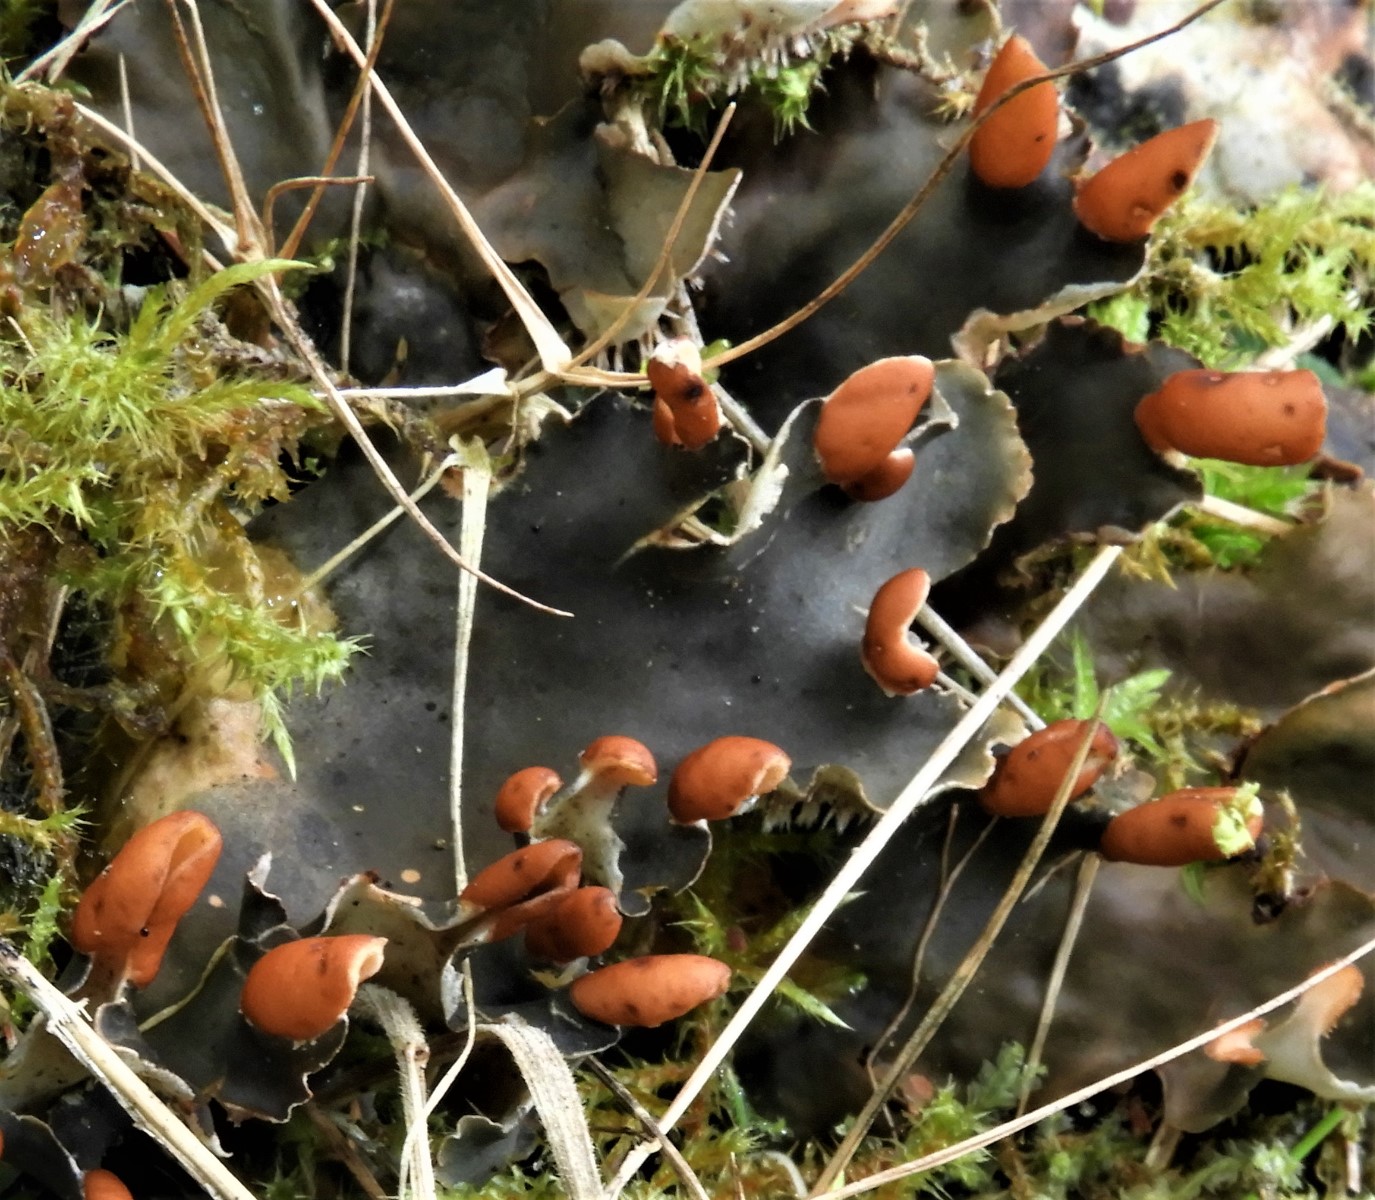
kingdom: Fungi
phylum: Ascomycota
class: Lecanoromycetes
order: Peltigerales
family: Peltigeraceae
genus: Peltigera
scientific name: Peltigera hymenina
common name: hinde-skjoldlav
